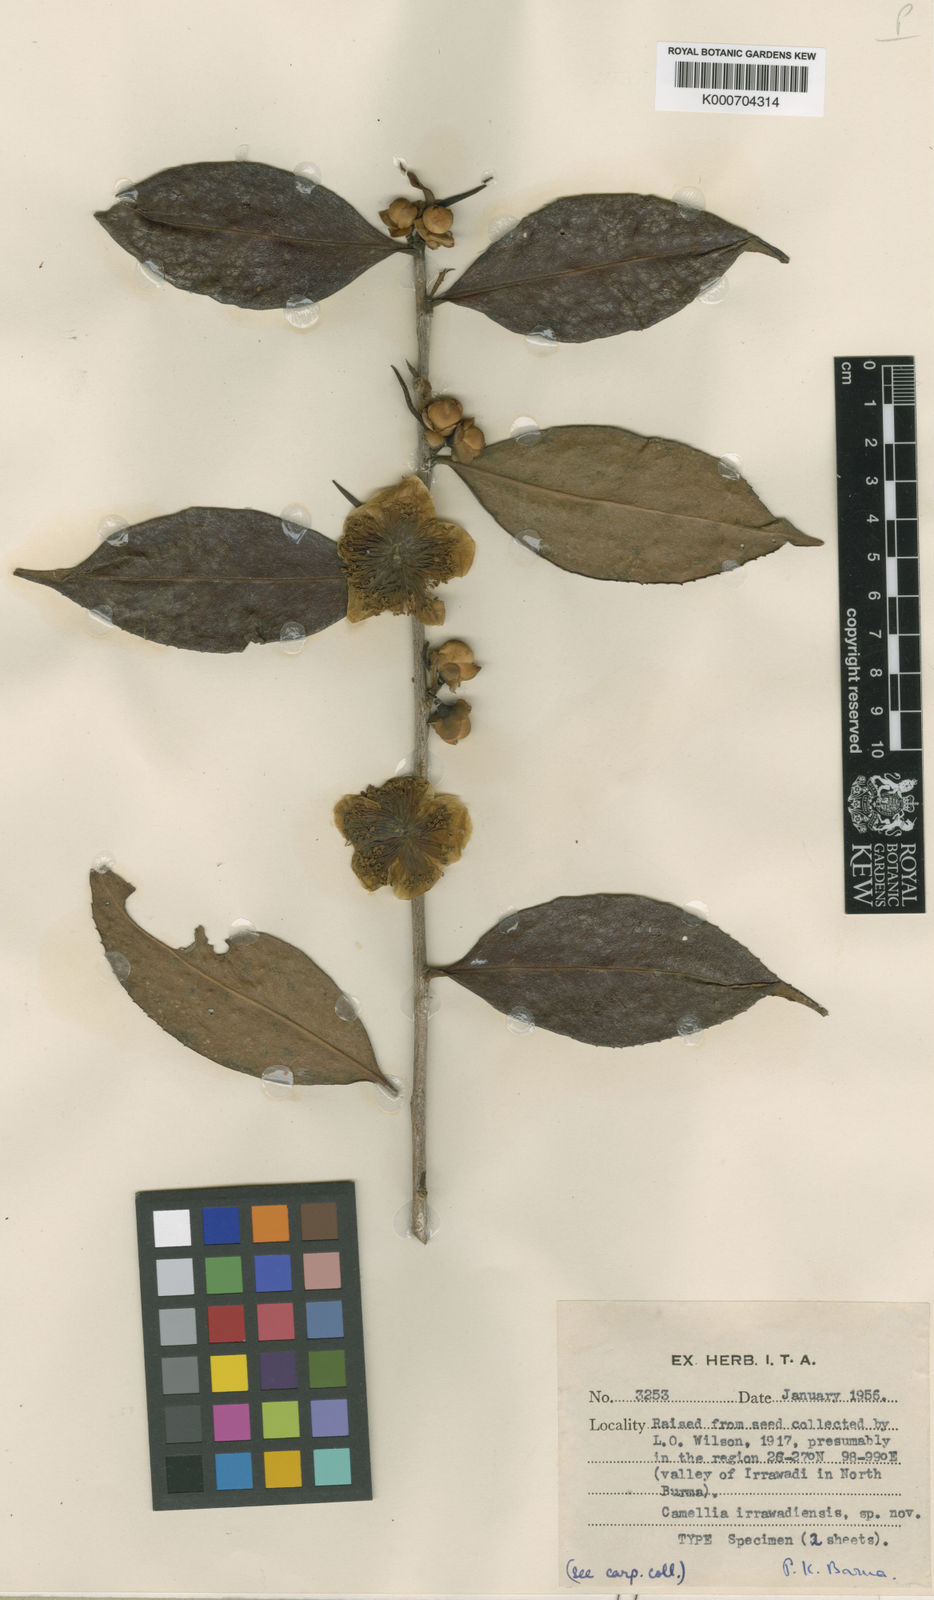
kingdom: Plantae
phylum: Tracheophyta
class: Magnoliopsida
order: Ericales
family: Theaceae
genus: Camellia
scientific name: Camellia taliensis
